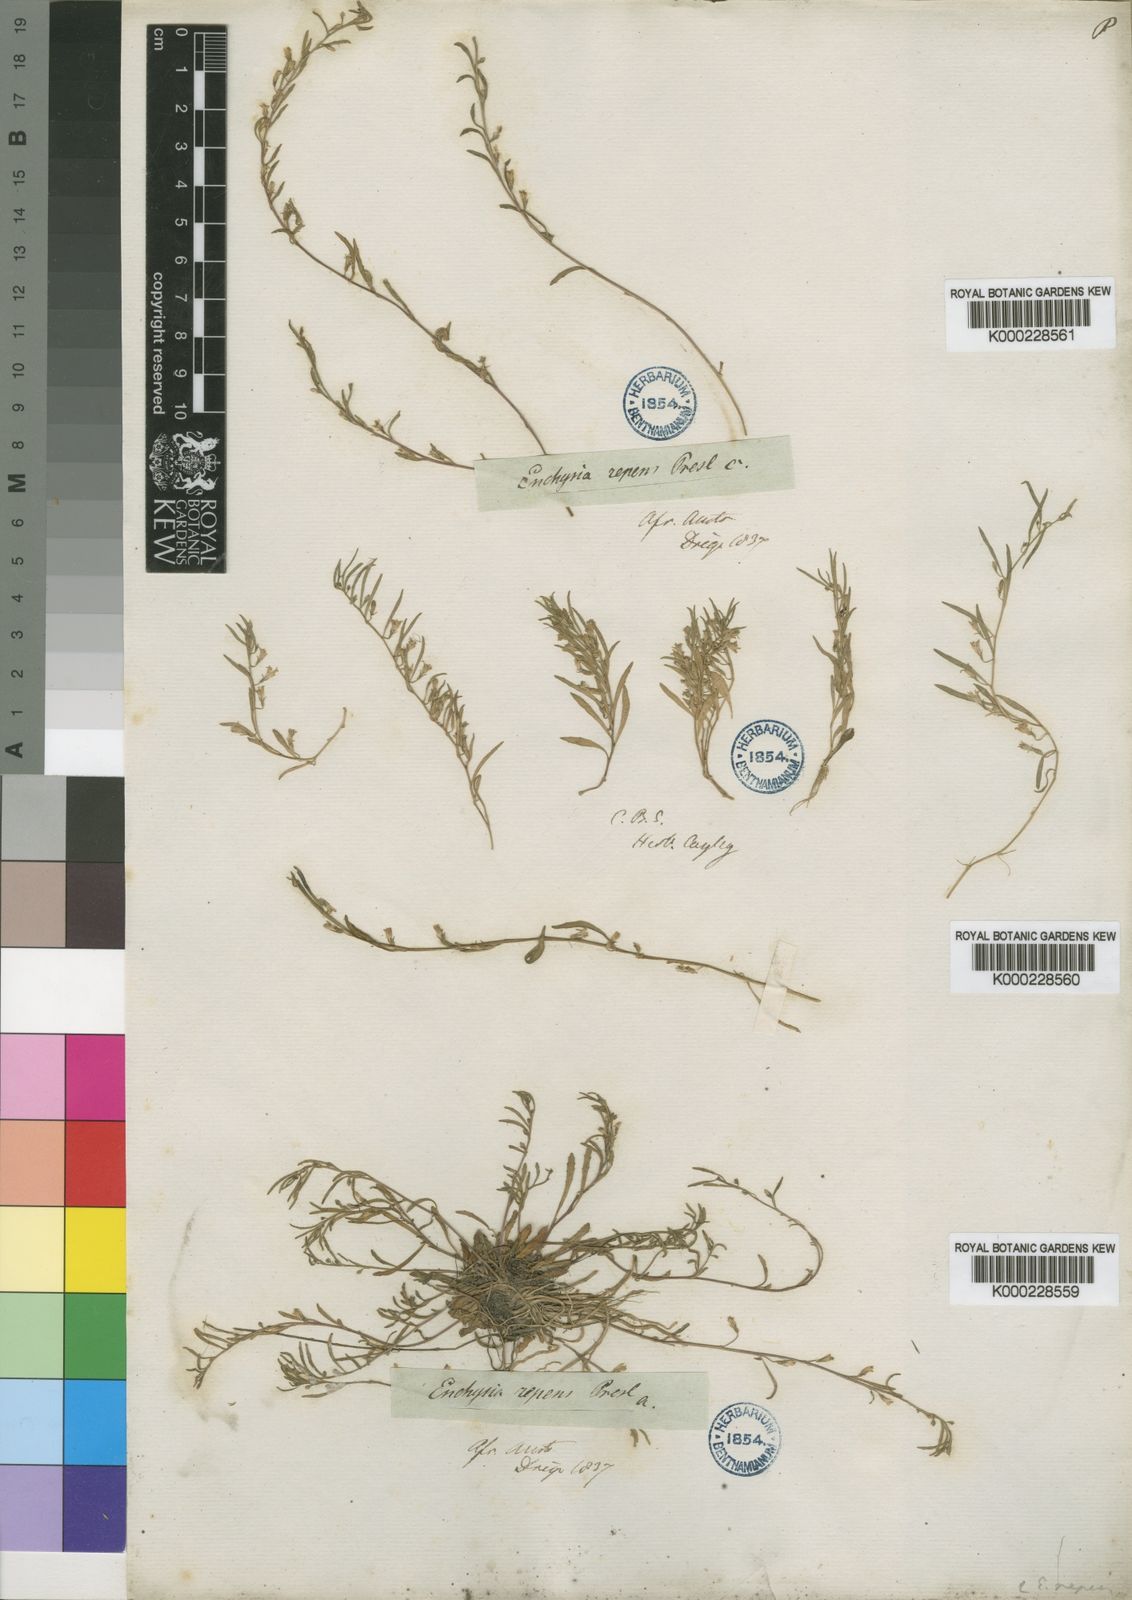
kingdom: Plantae
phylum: Tracheophyta
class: Magnoliopsida
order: Asterales
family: Campanulaceae
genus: Wimmerella
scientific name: Wimmerella
